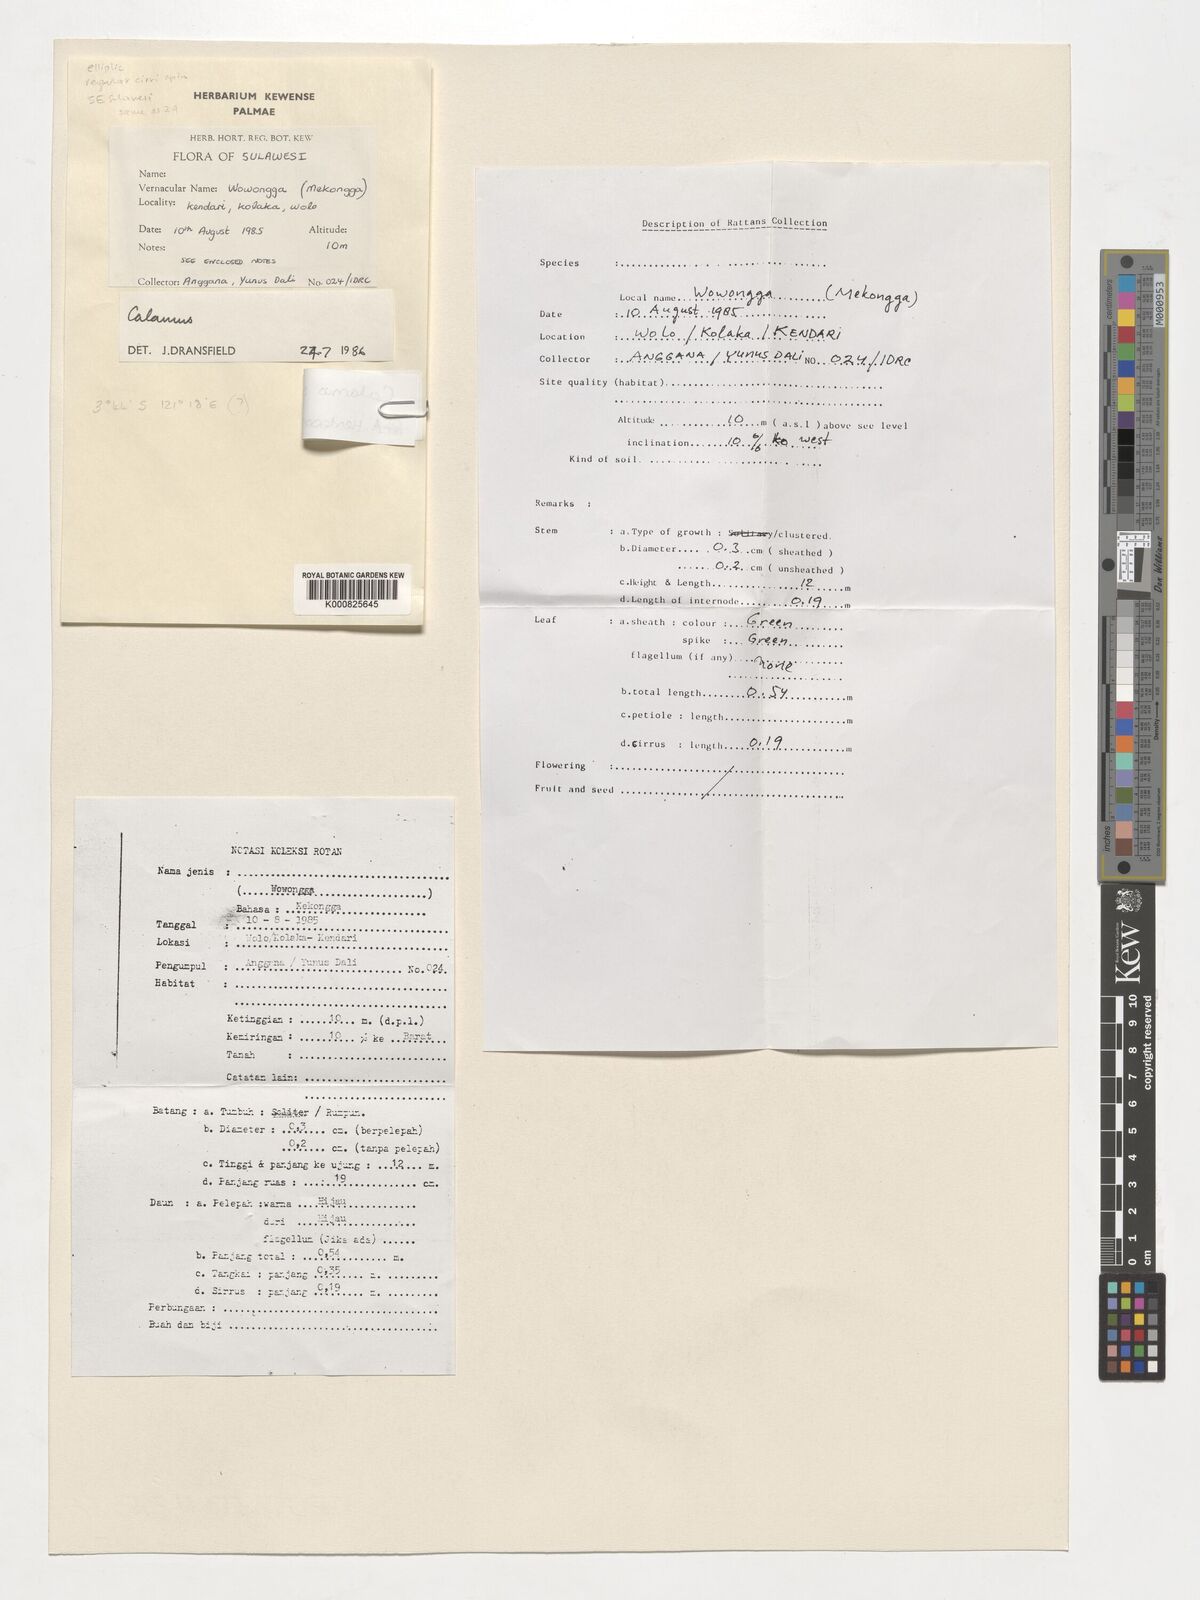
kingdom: Plantae
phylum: Tracheophyta
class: Liliopsida
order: Arecales
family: Arecaceae
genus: Calamus
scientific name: Calamus
